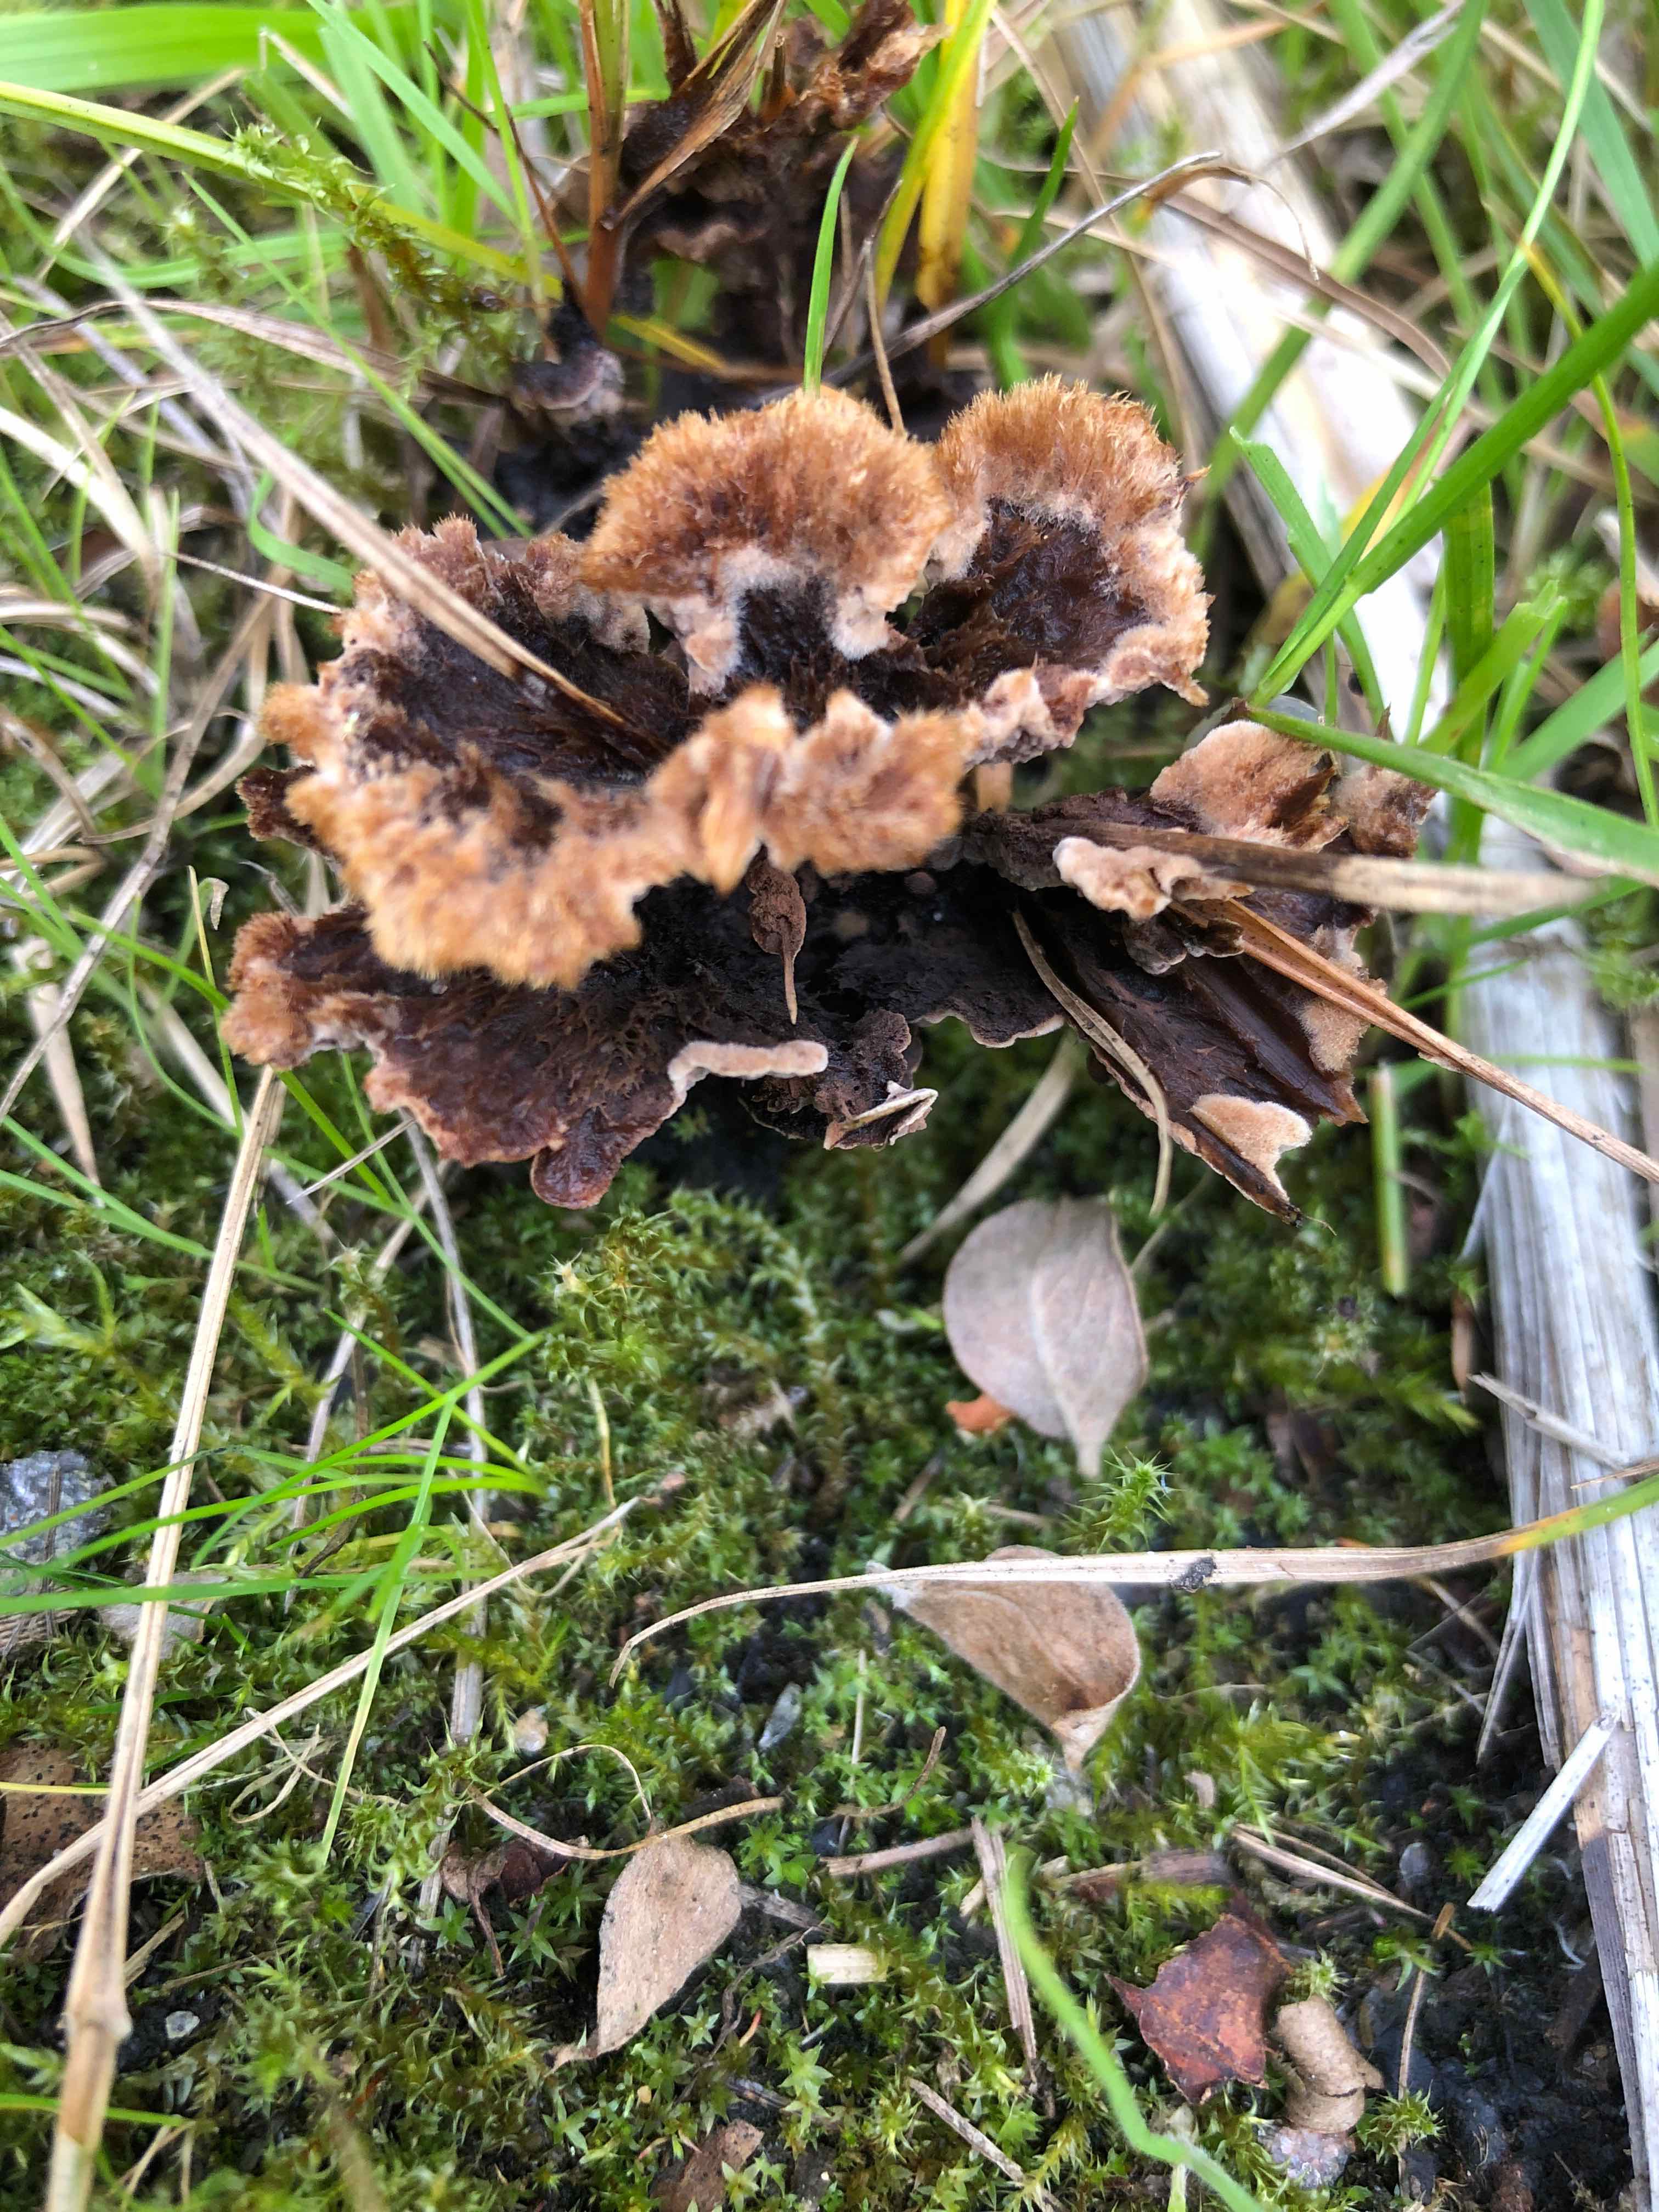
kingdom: Fungi
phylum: Basidiomycota
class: Agaricomycetes
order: Thelephorales
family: Thelephoraceae
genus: Thelephora
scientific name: Thelephora terrestris
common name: fliget frynsesvamp
